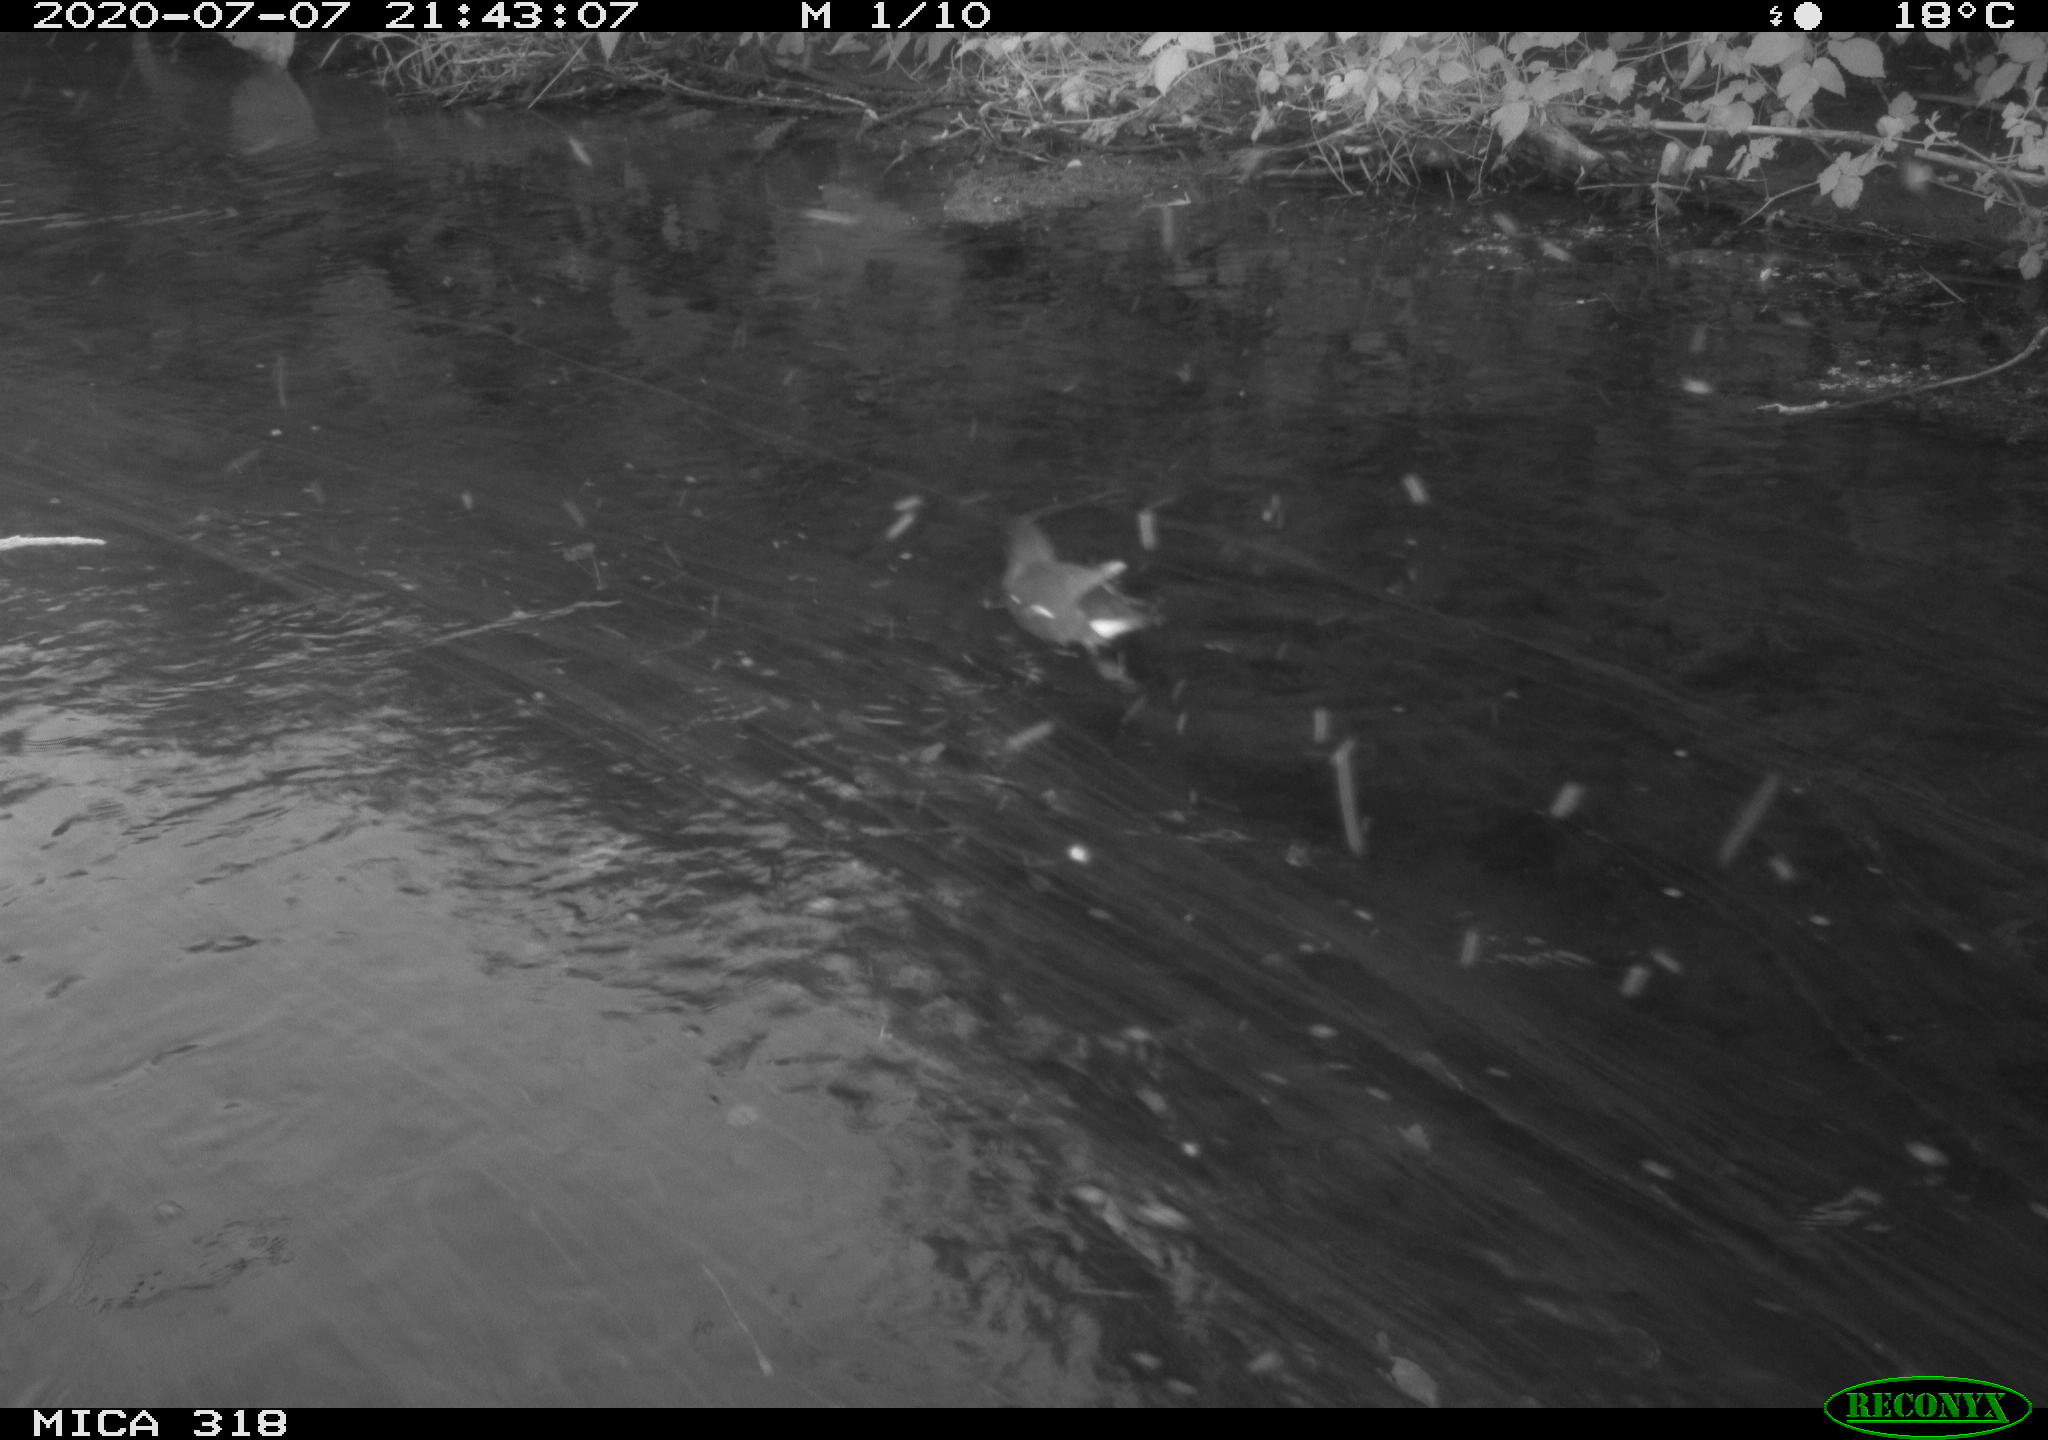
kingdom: Animalia
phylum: Chordata
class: Aves
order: Gruiformes
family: Rallidae
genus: Gallinula
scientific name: Gallinula chloropus
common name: Common moorhen
